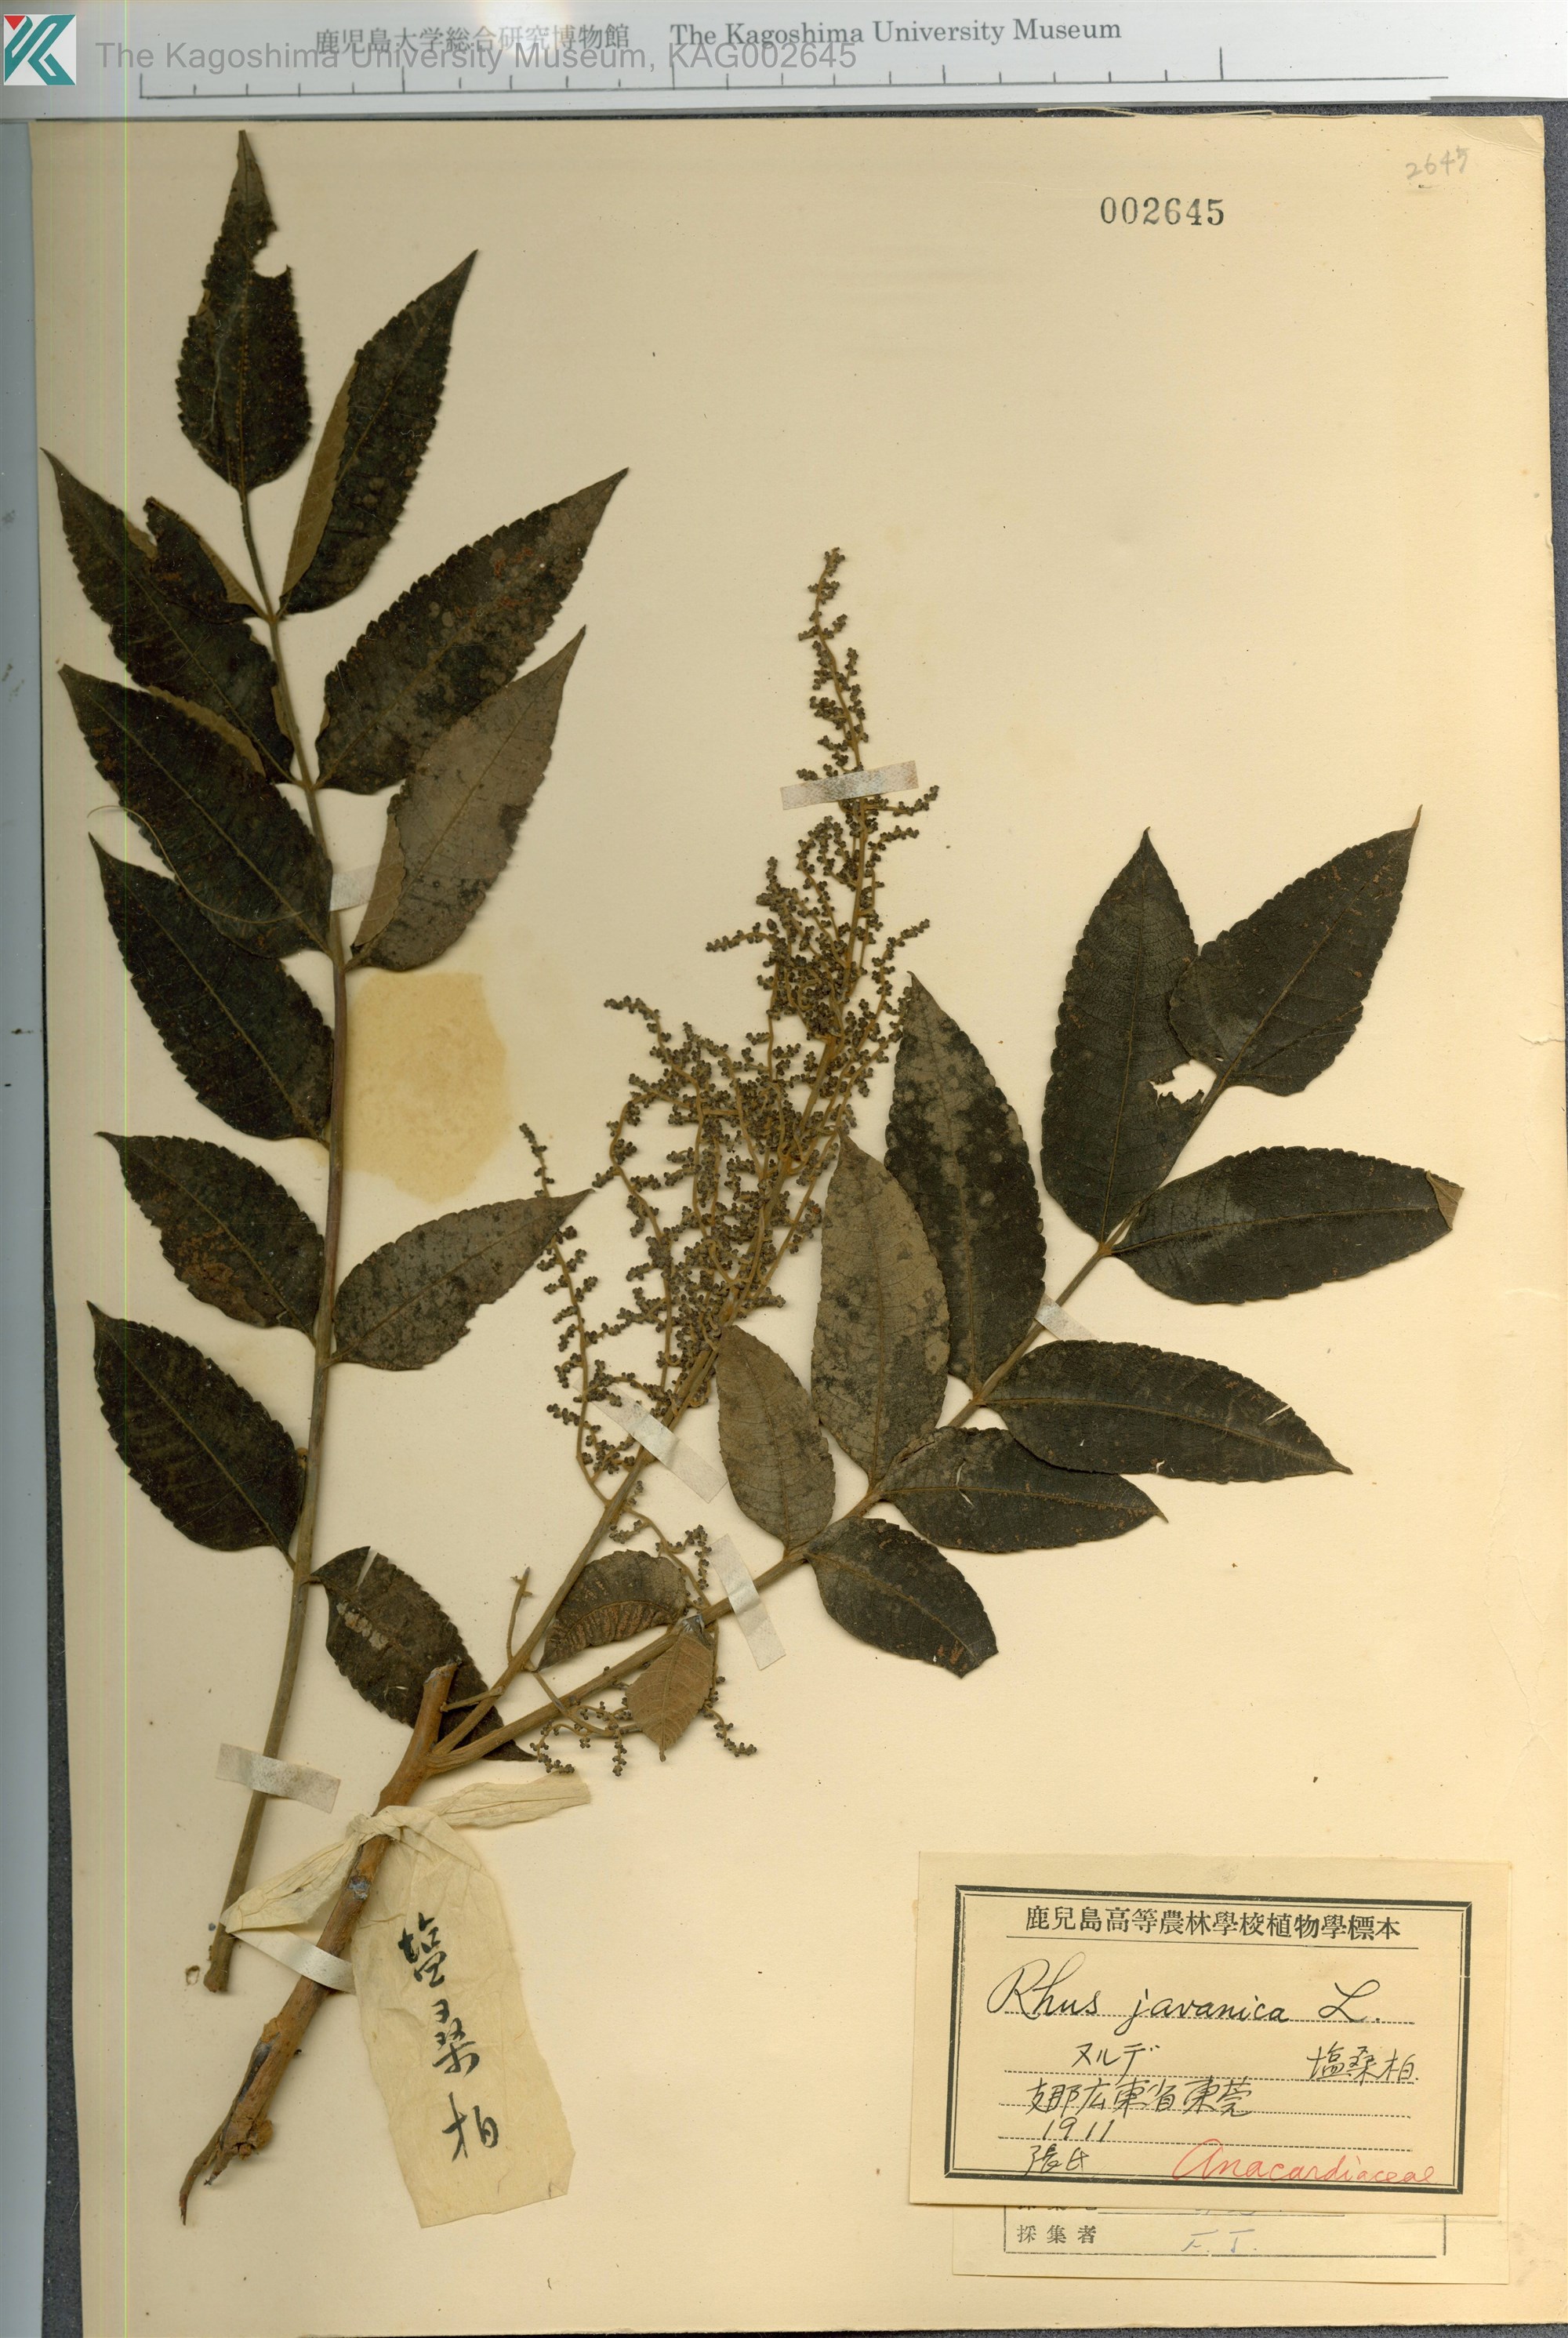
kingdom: Plantae
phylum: Tracheophyta
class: Magnoliopsida
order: Sapindales
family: Simaroubaceae
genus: Brucea
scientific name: Brucea javanica
